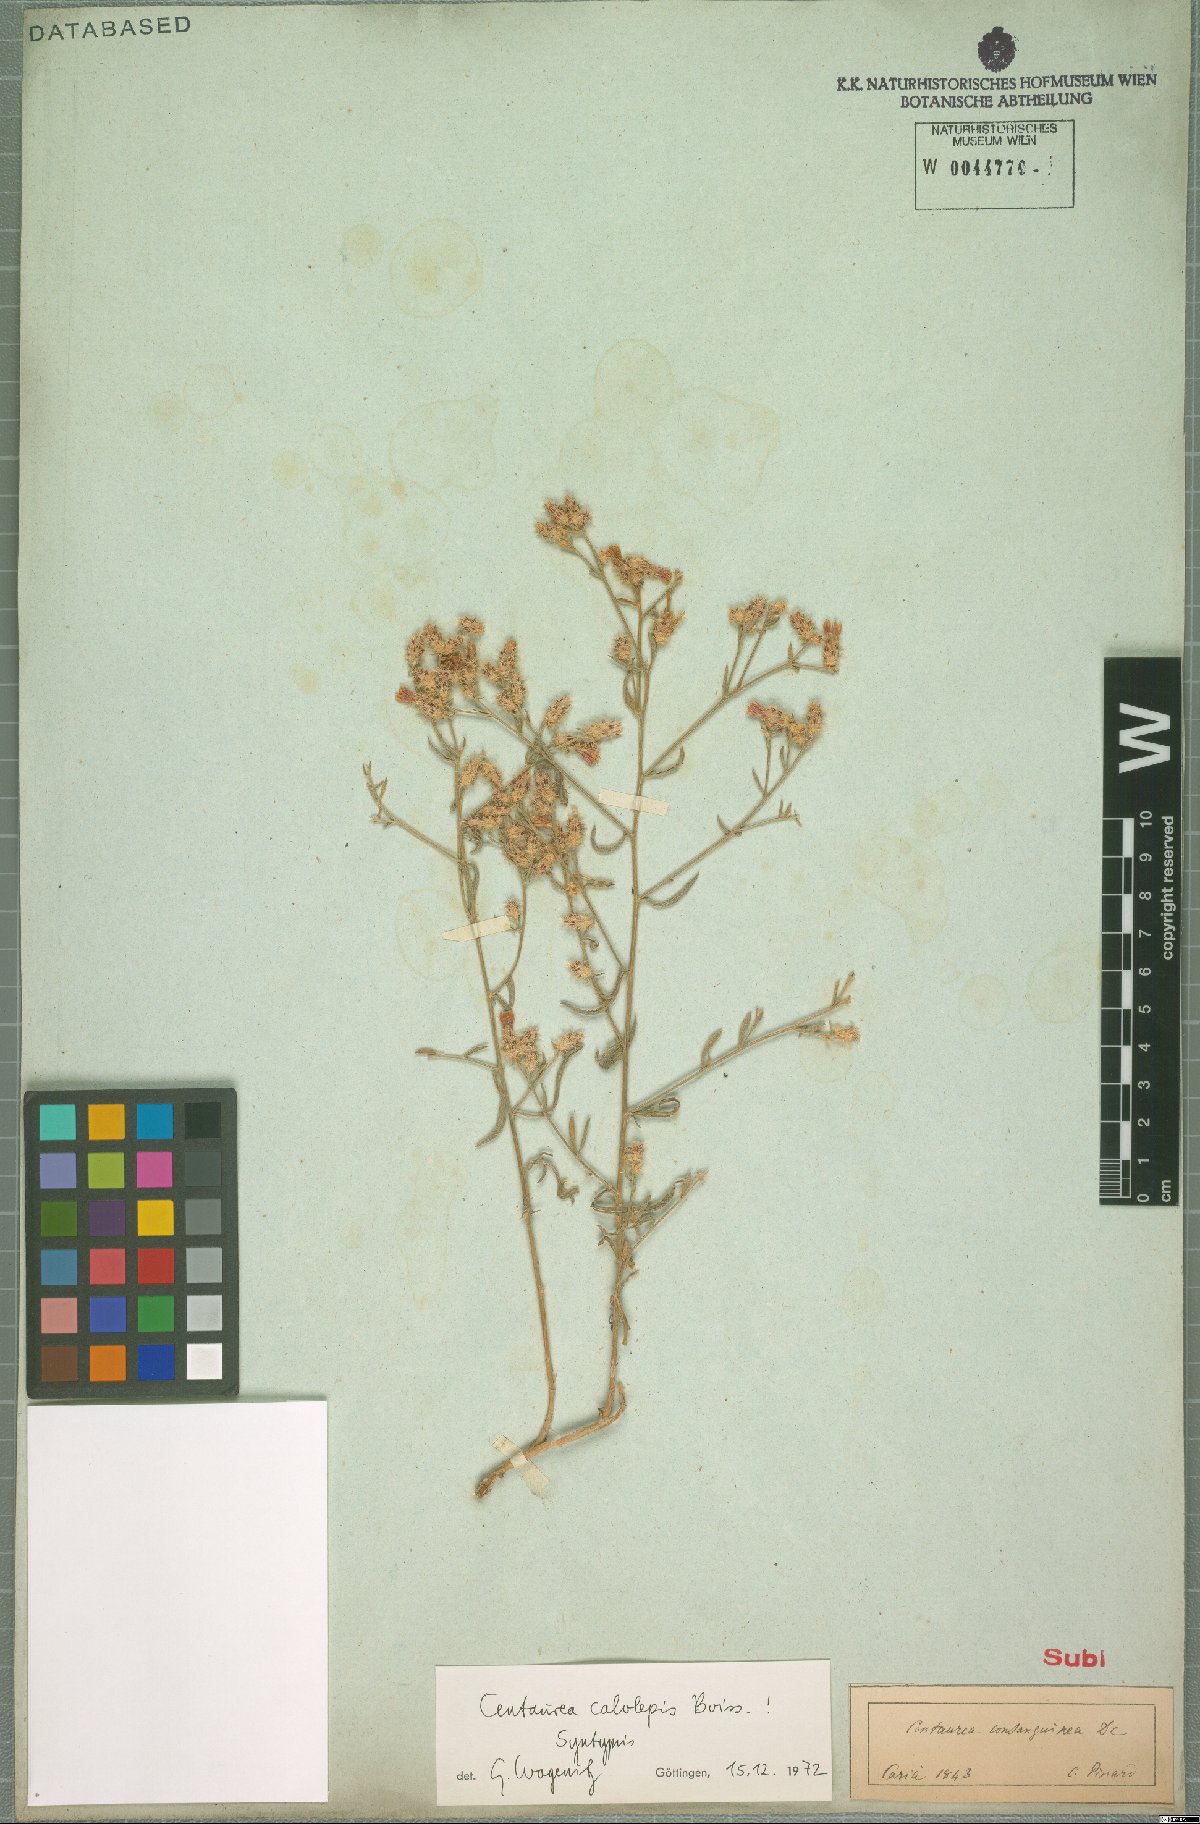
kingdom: Plantae
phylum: Tracheophyta
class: Magnoliopsida
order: Asterales
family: Asteraceae
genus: Centaurea
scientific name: Centaurea calolepis
